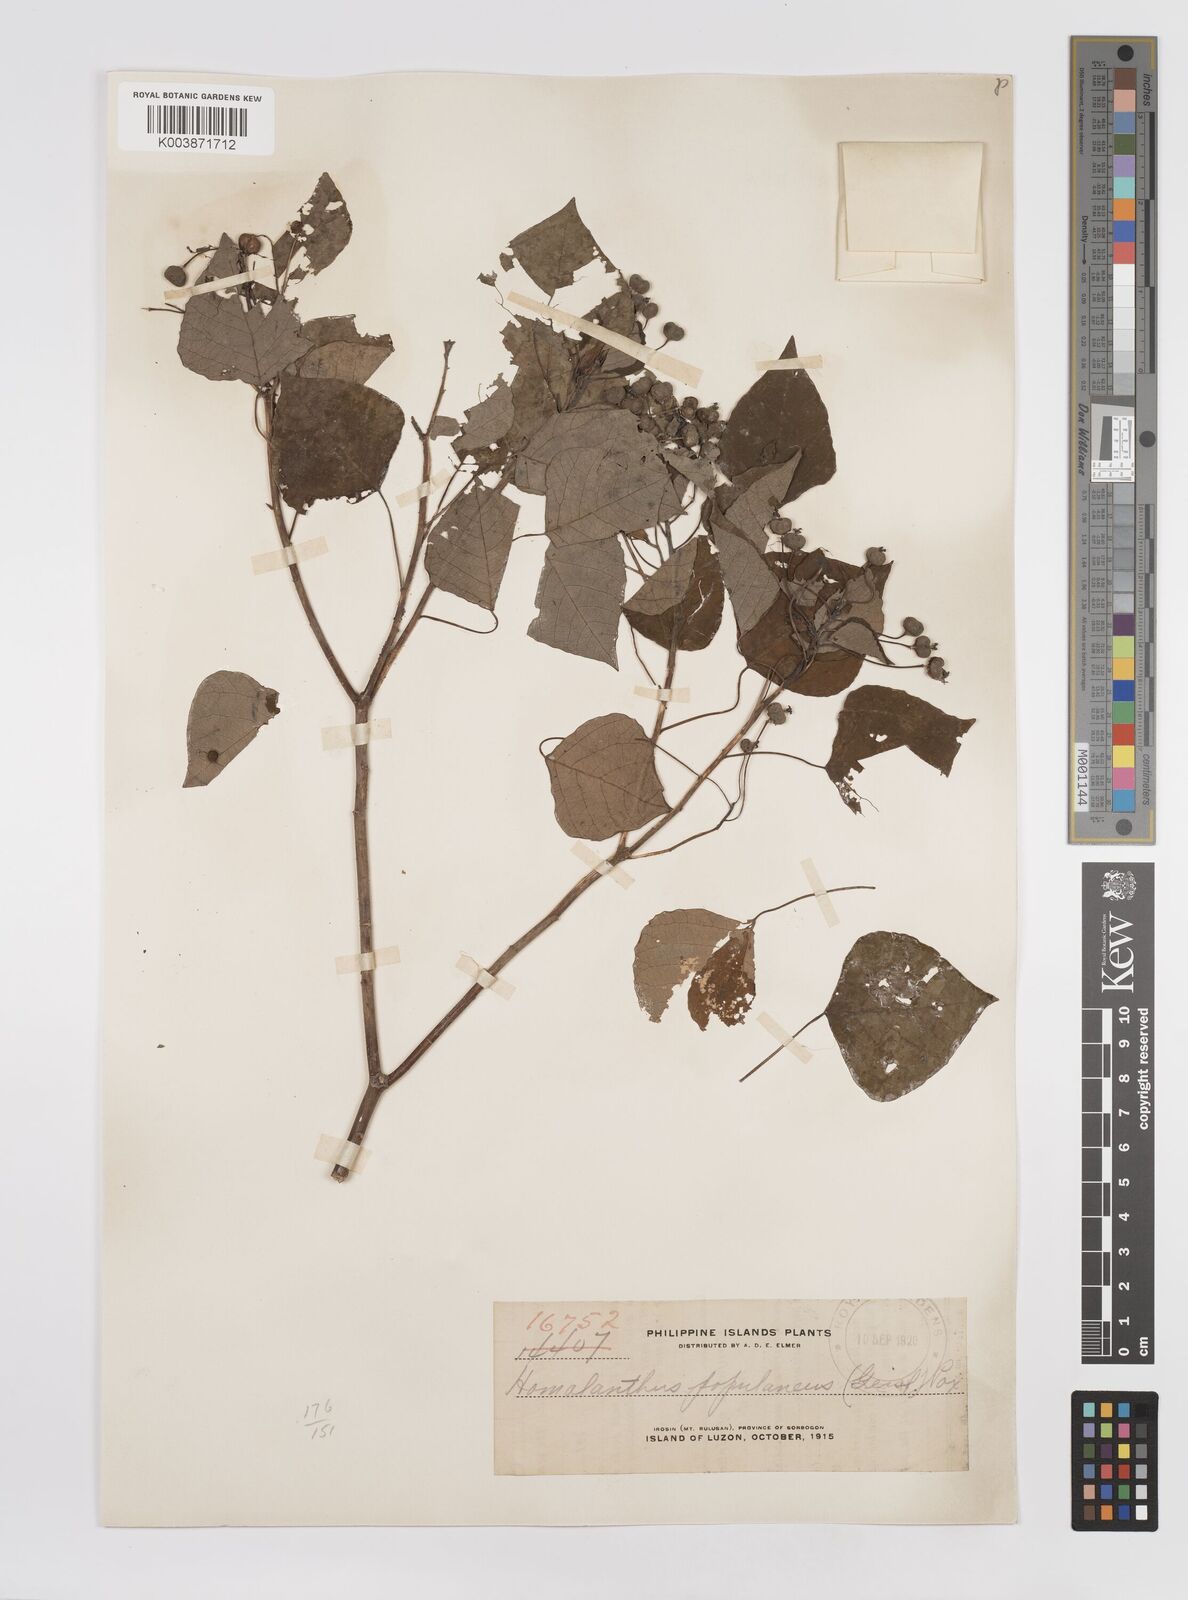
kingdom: Plantae
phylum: Tracheophyta
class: Magnoliopsida
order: Malpighiales
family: Euphorbiaceae
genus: Homalanthus
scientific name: Homalanthus populneus
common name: Spurge
